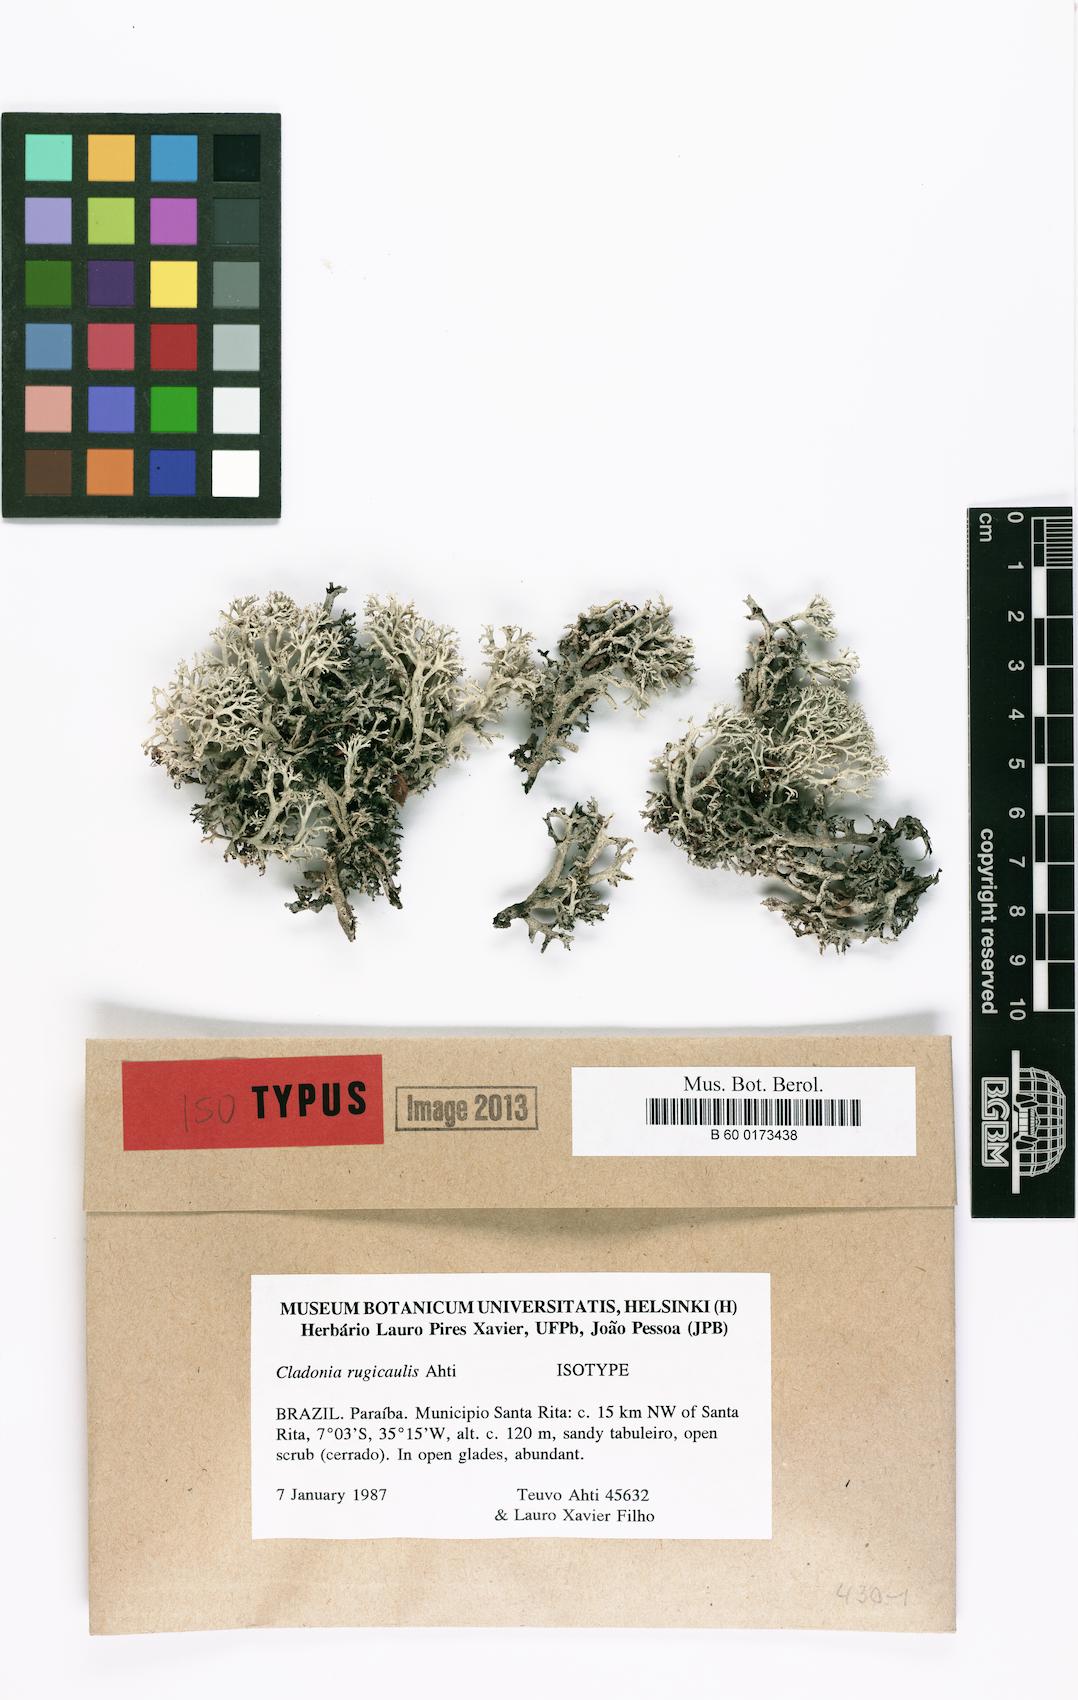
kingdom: Fungi
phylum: Ascomycota
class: Lecanoromycetes
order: Lecanorales
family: Cladoniaceae
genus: Cladonia
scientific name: Cladonia rugicaulis
